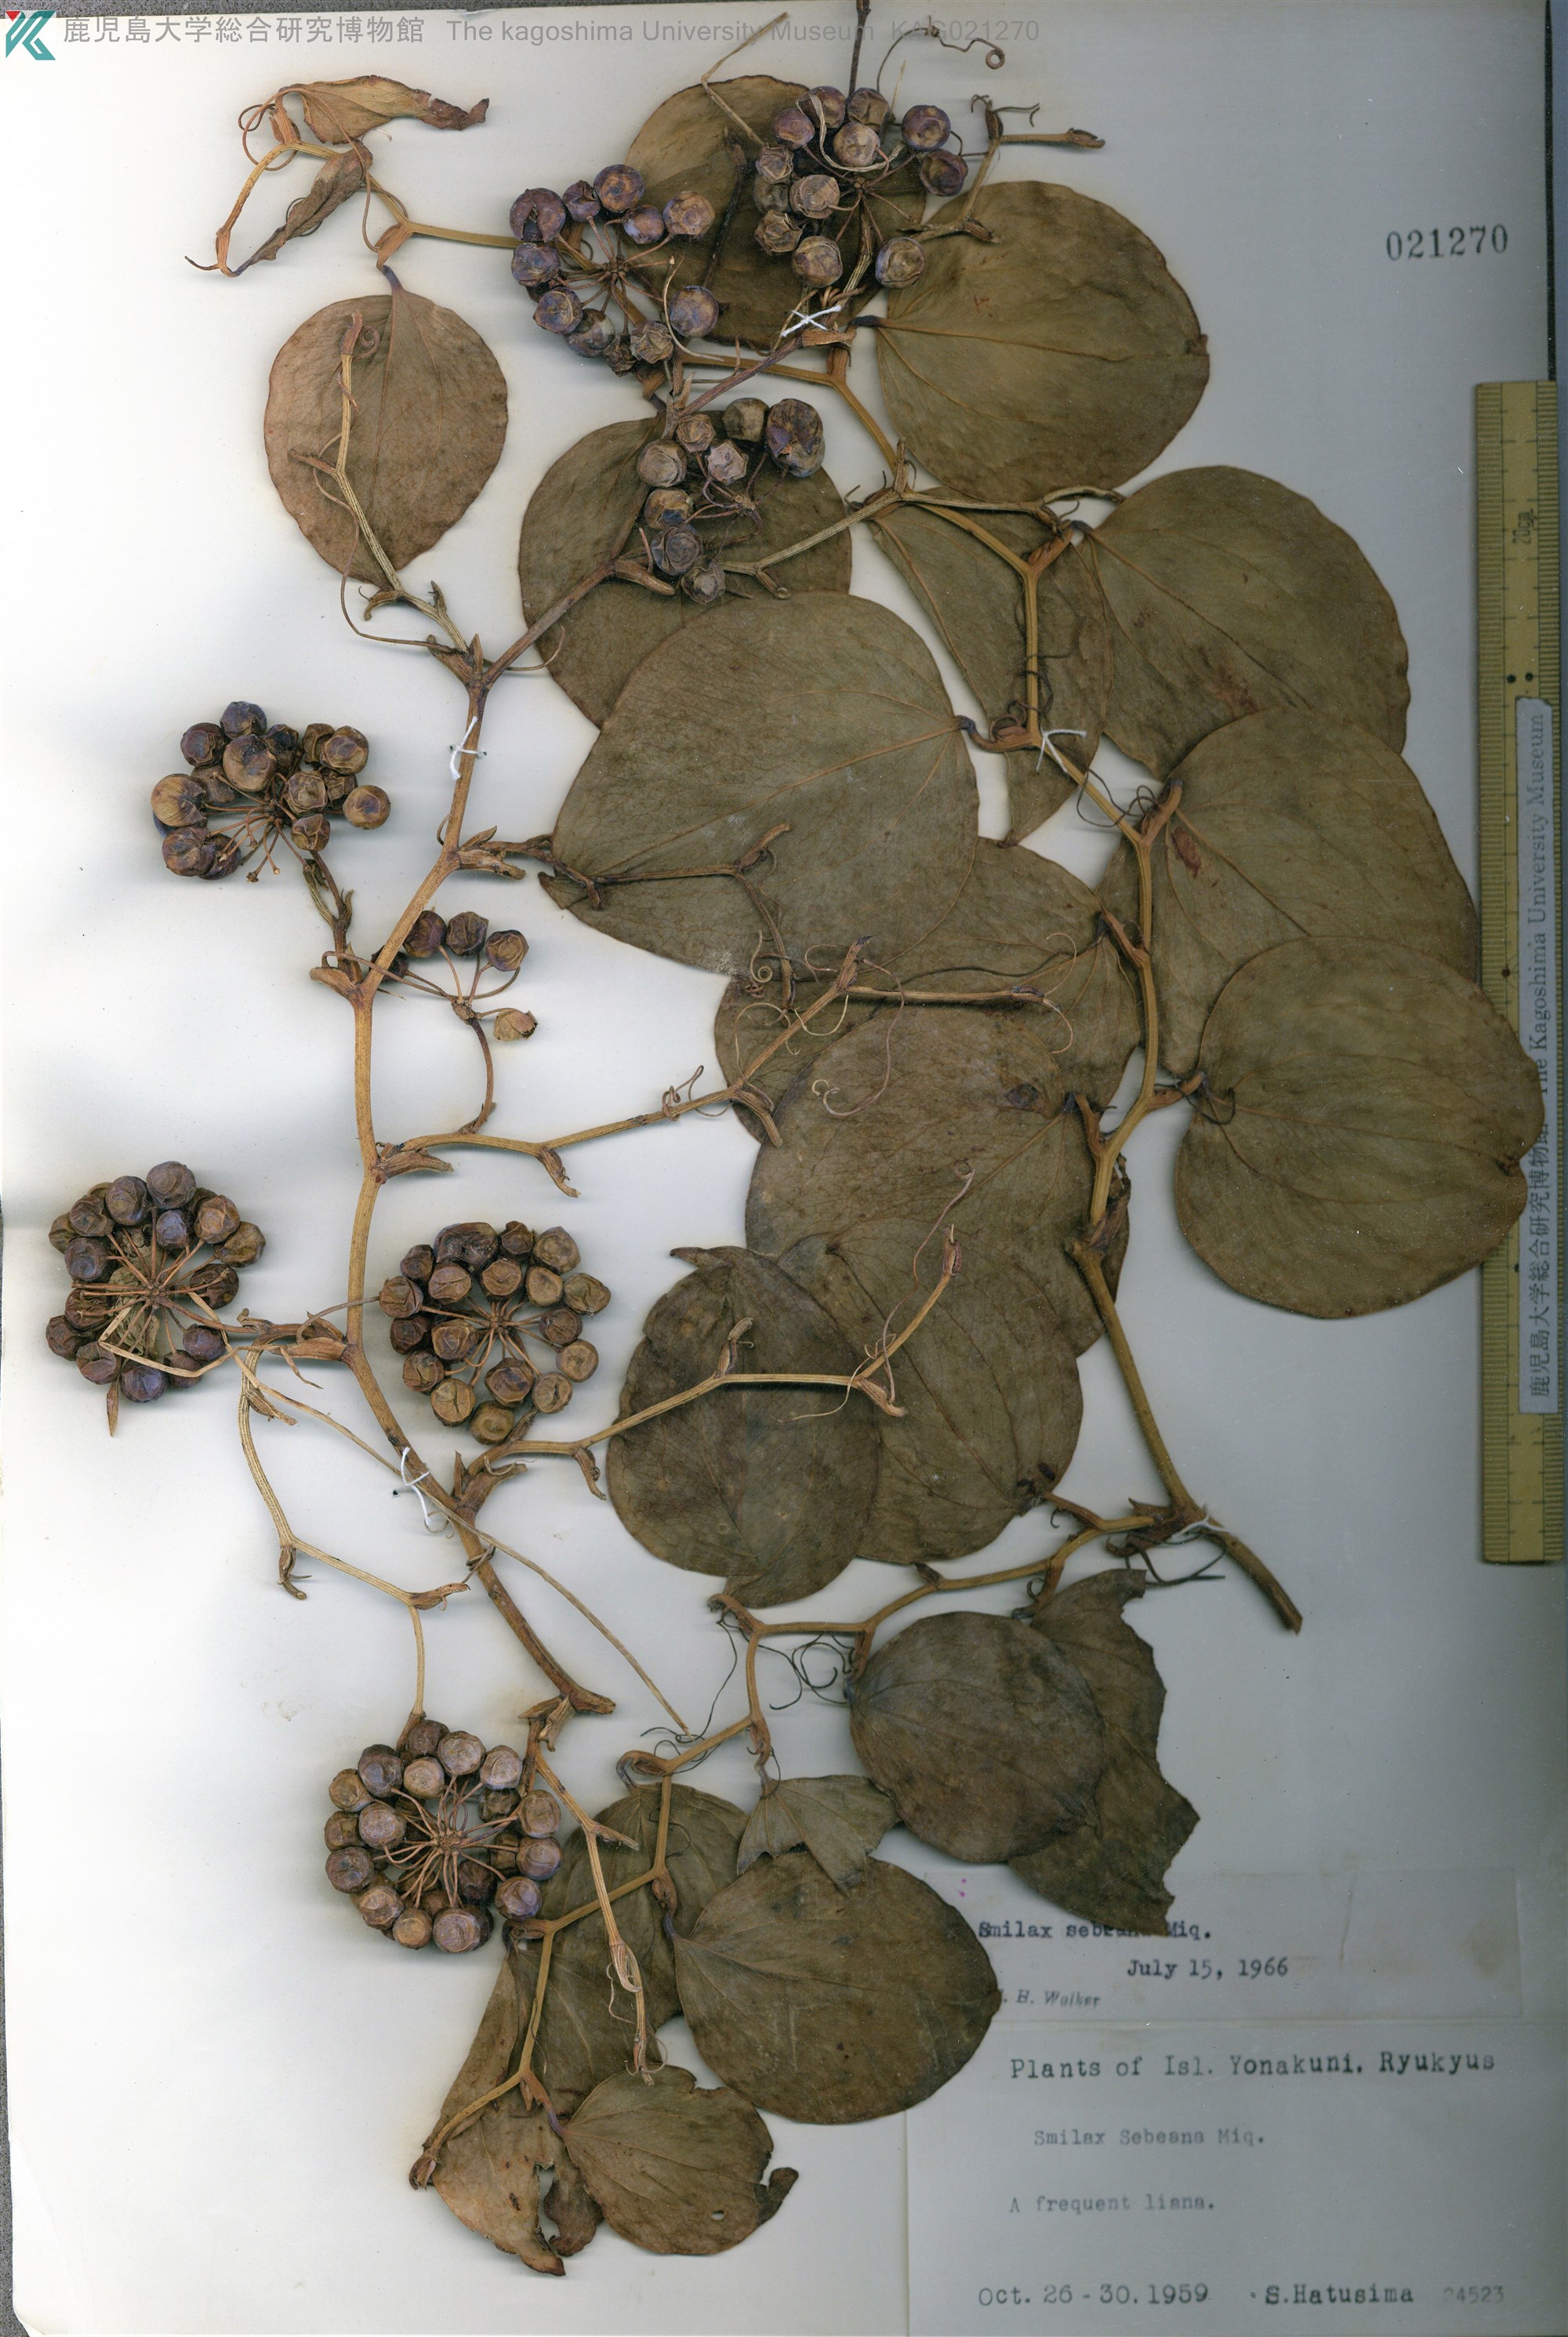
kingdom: Plantae
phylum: Tracheophyta
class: Liliopsida
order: Liliales
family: Smilacaceae
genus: Smilax
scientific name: Smilax sebeana
